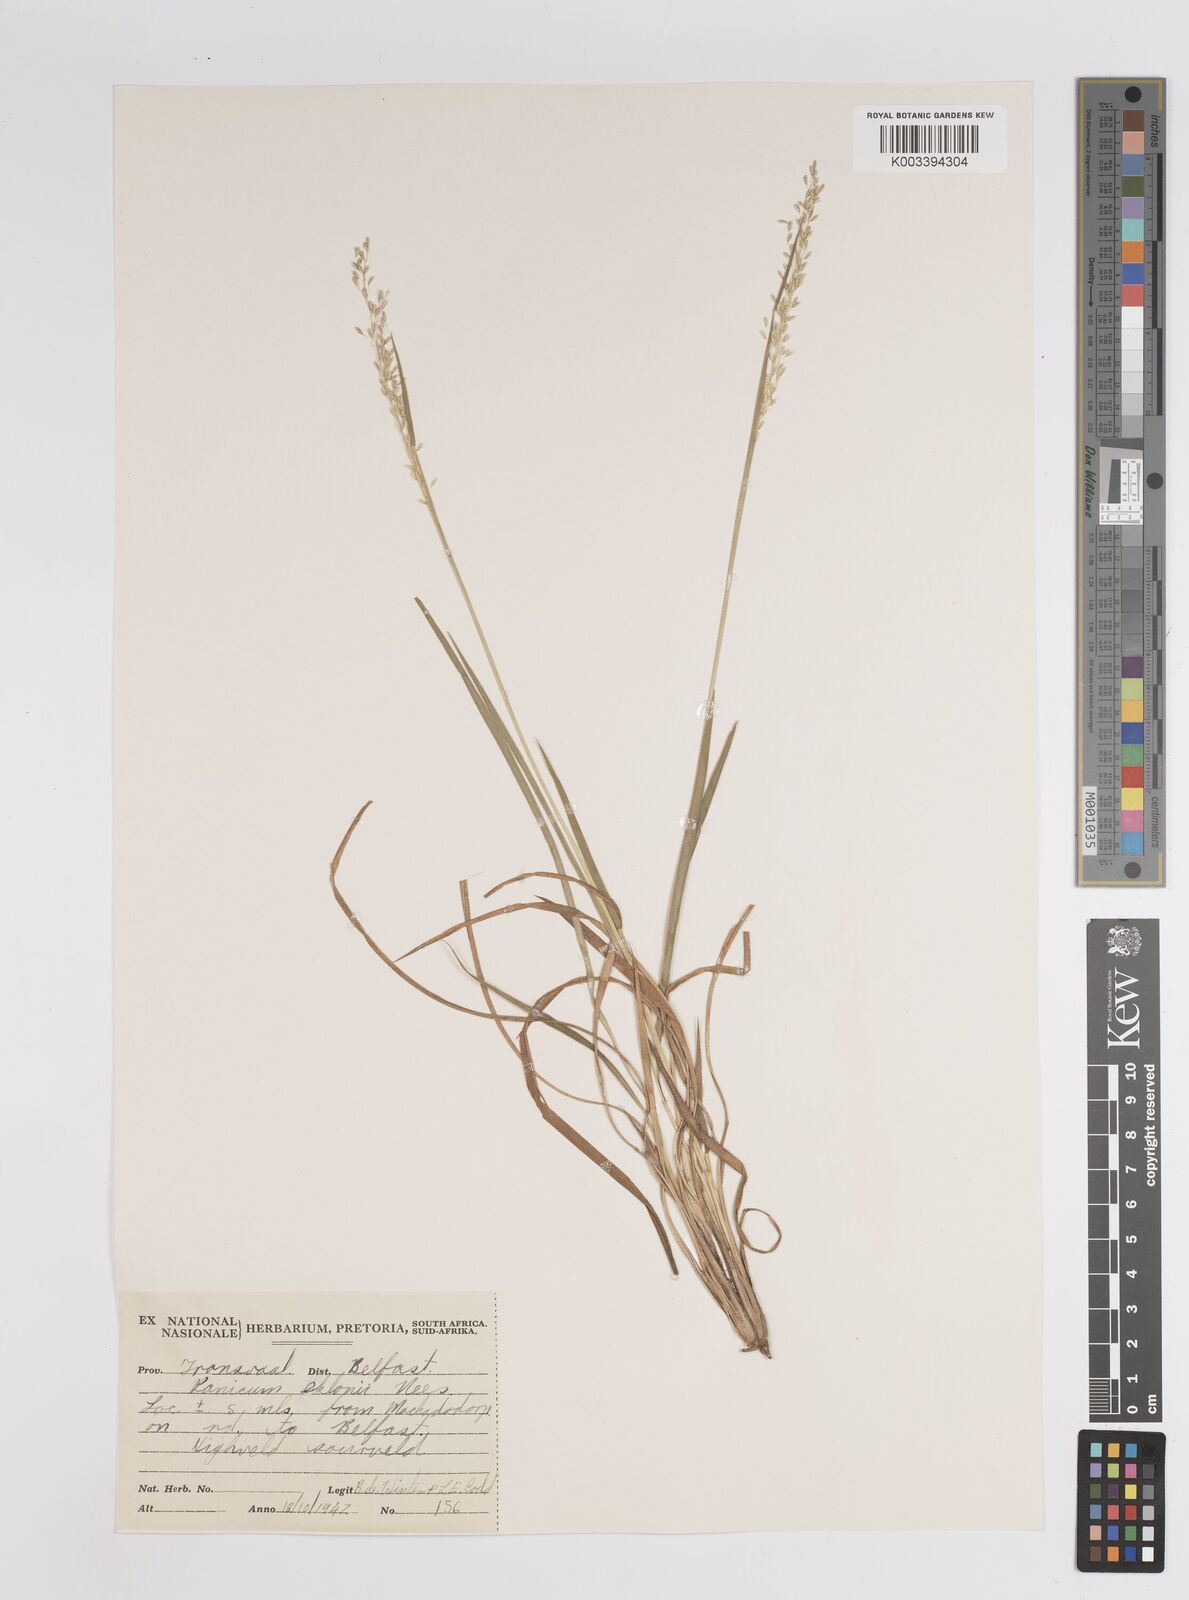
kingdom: Plantae
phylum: Tracheophyta
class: Liliopsida
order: Poales
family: Poaceae
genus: Adenochloa
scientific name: Adenochloa ecklonii
